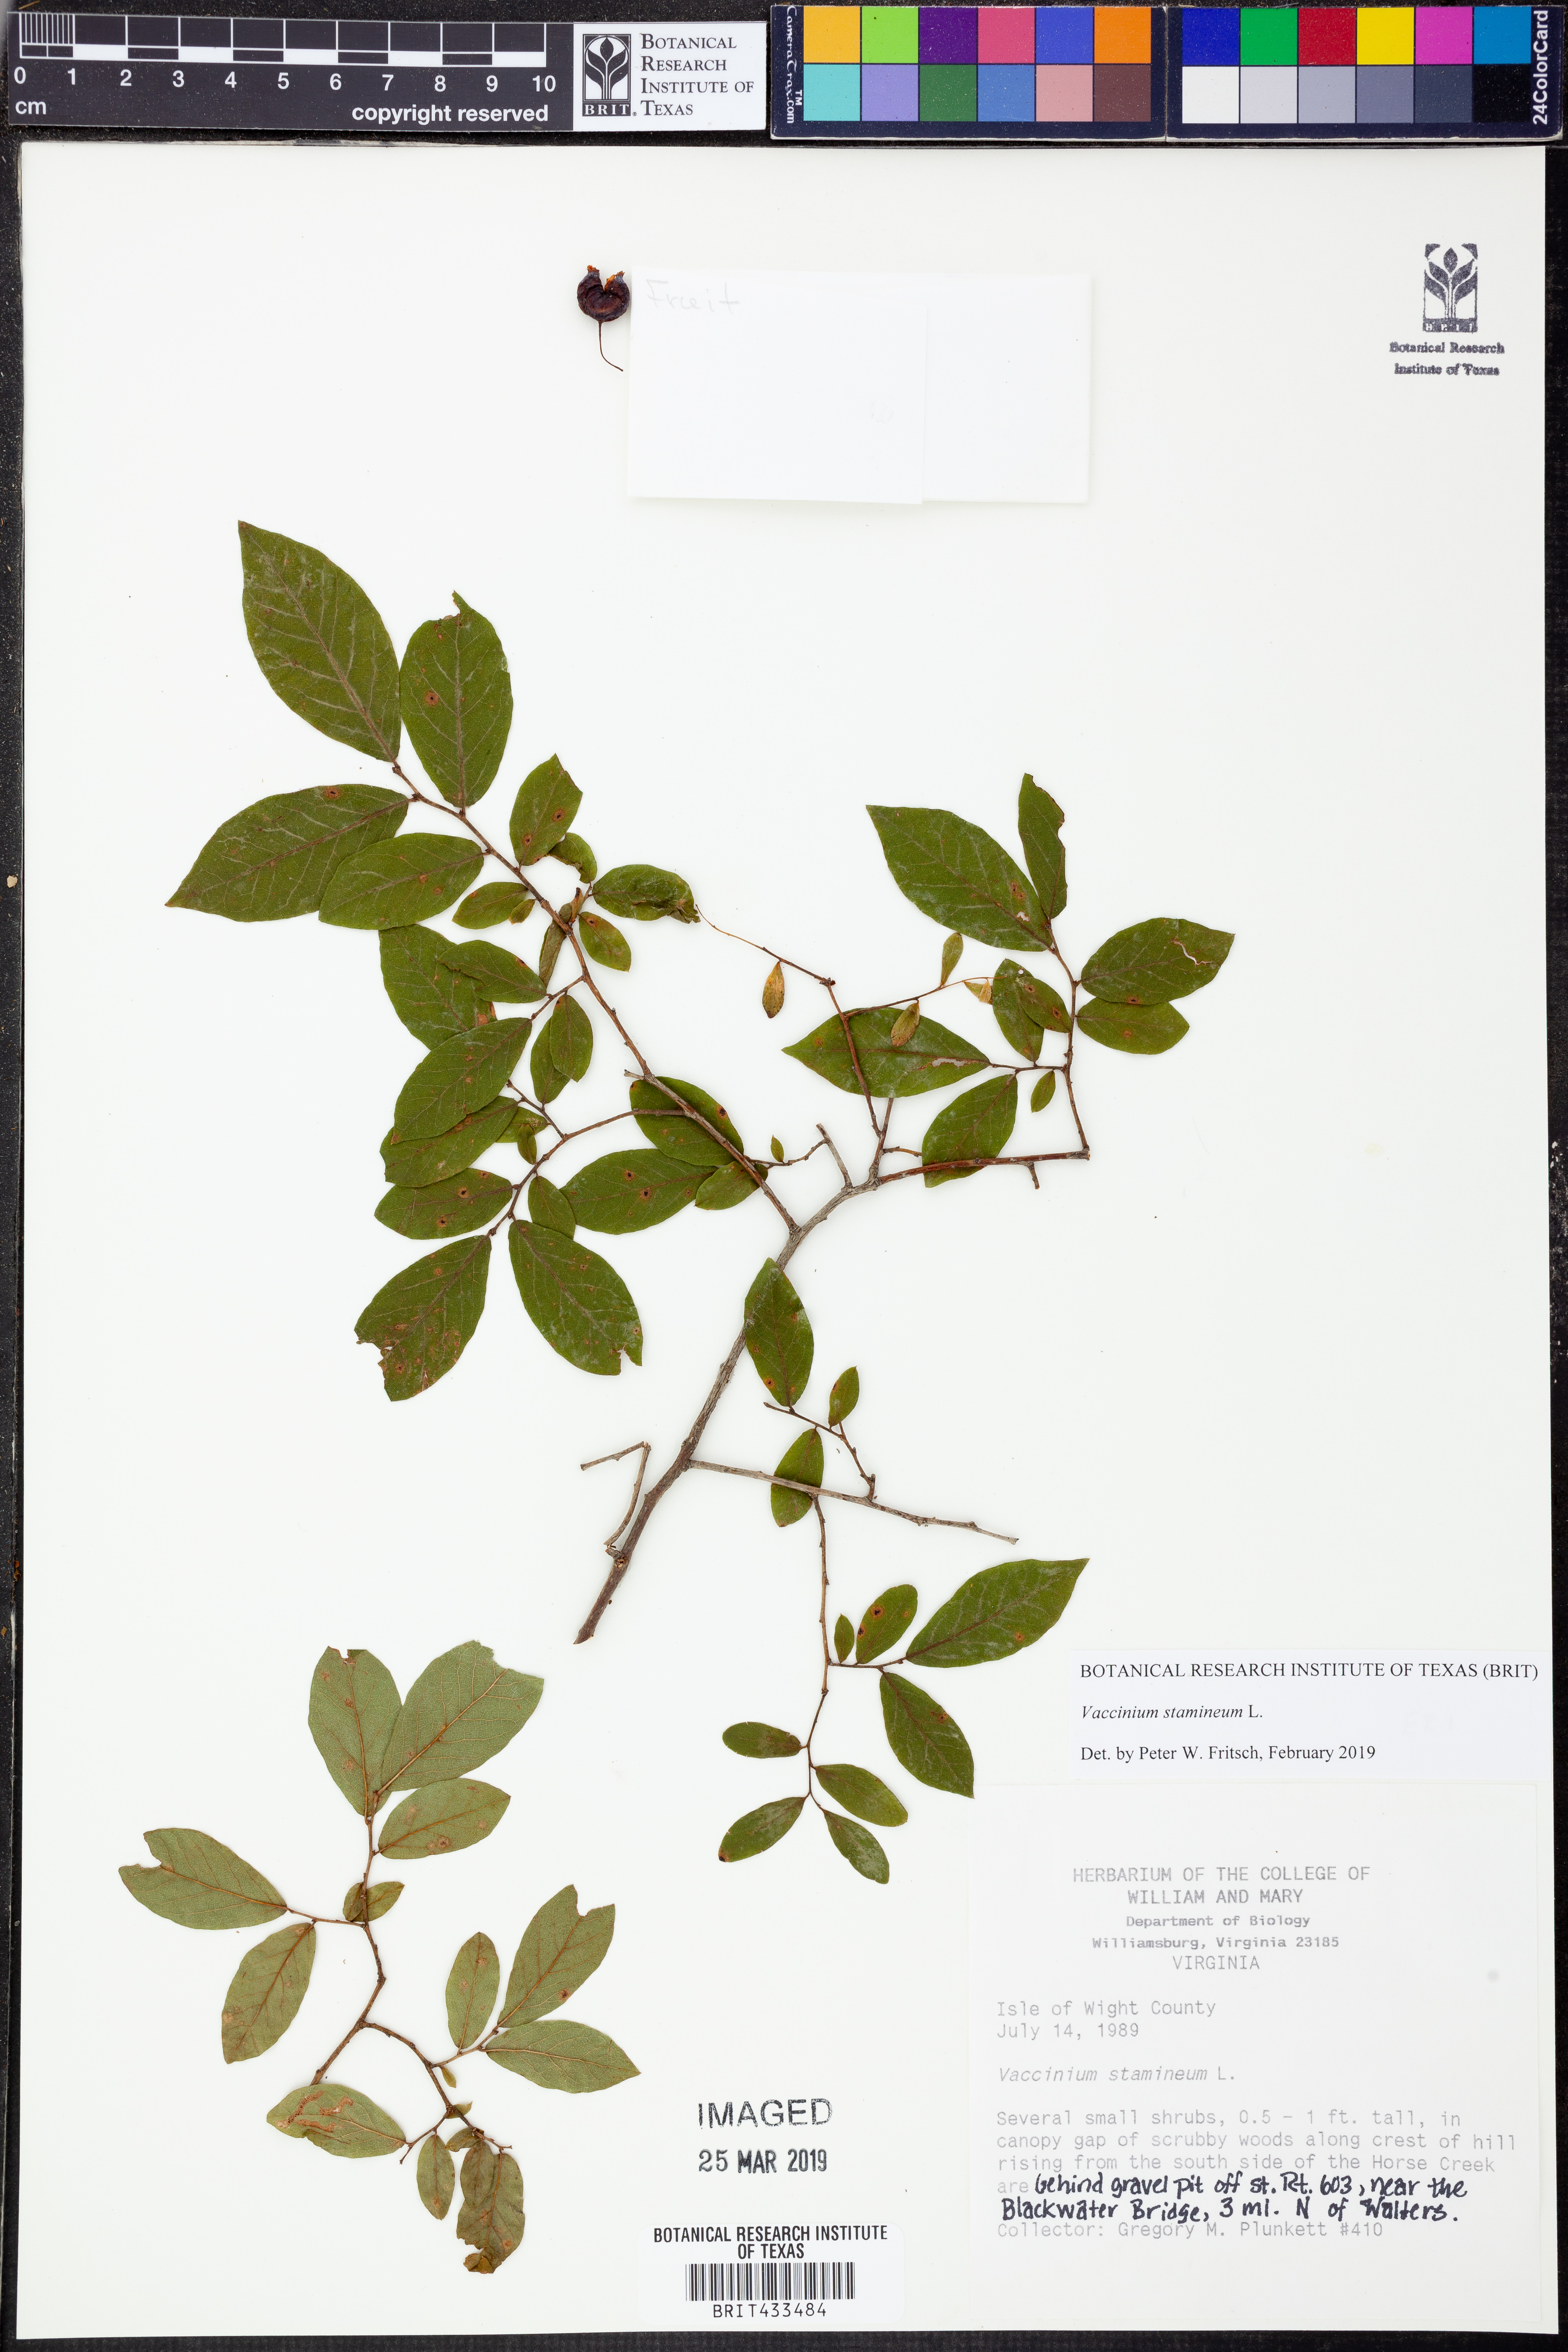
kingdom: Plantae
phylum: Tracheophyta
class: Magnoliopsida
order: Ericales
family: Ericaceae
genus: Vaccinium
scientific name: Vaccinium stamineum
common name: Deerberry
